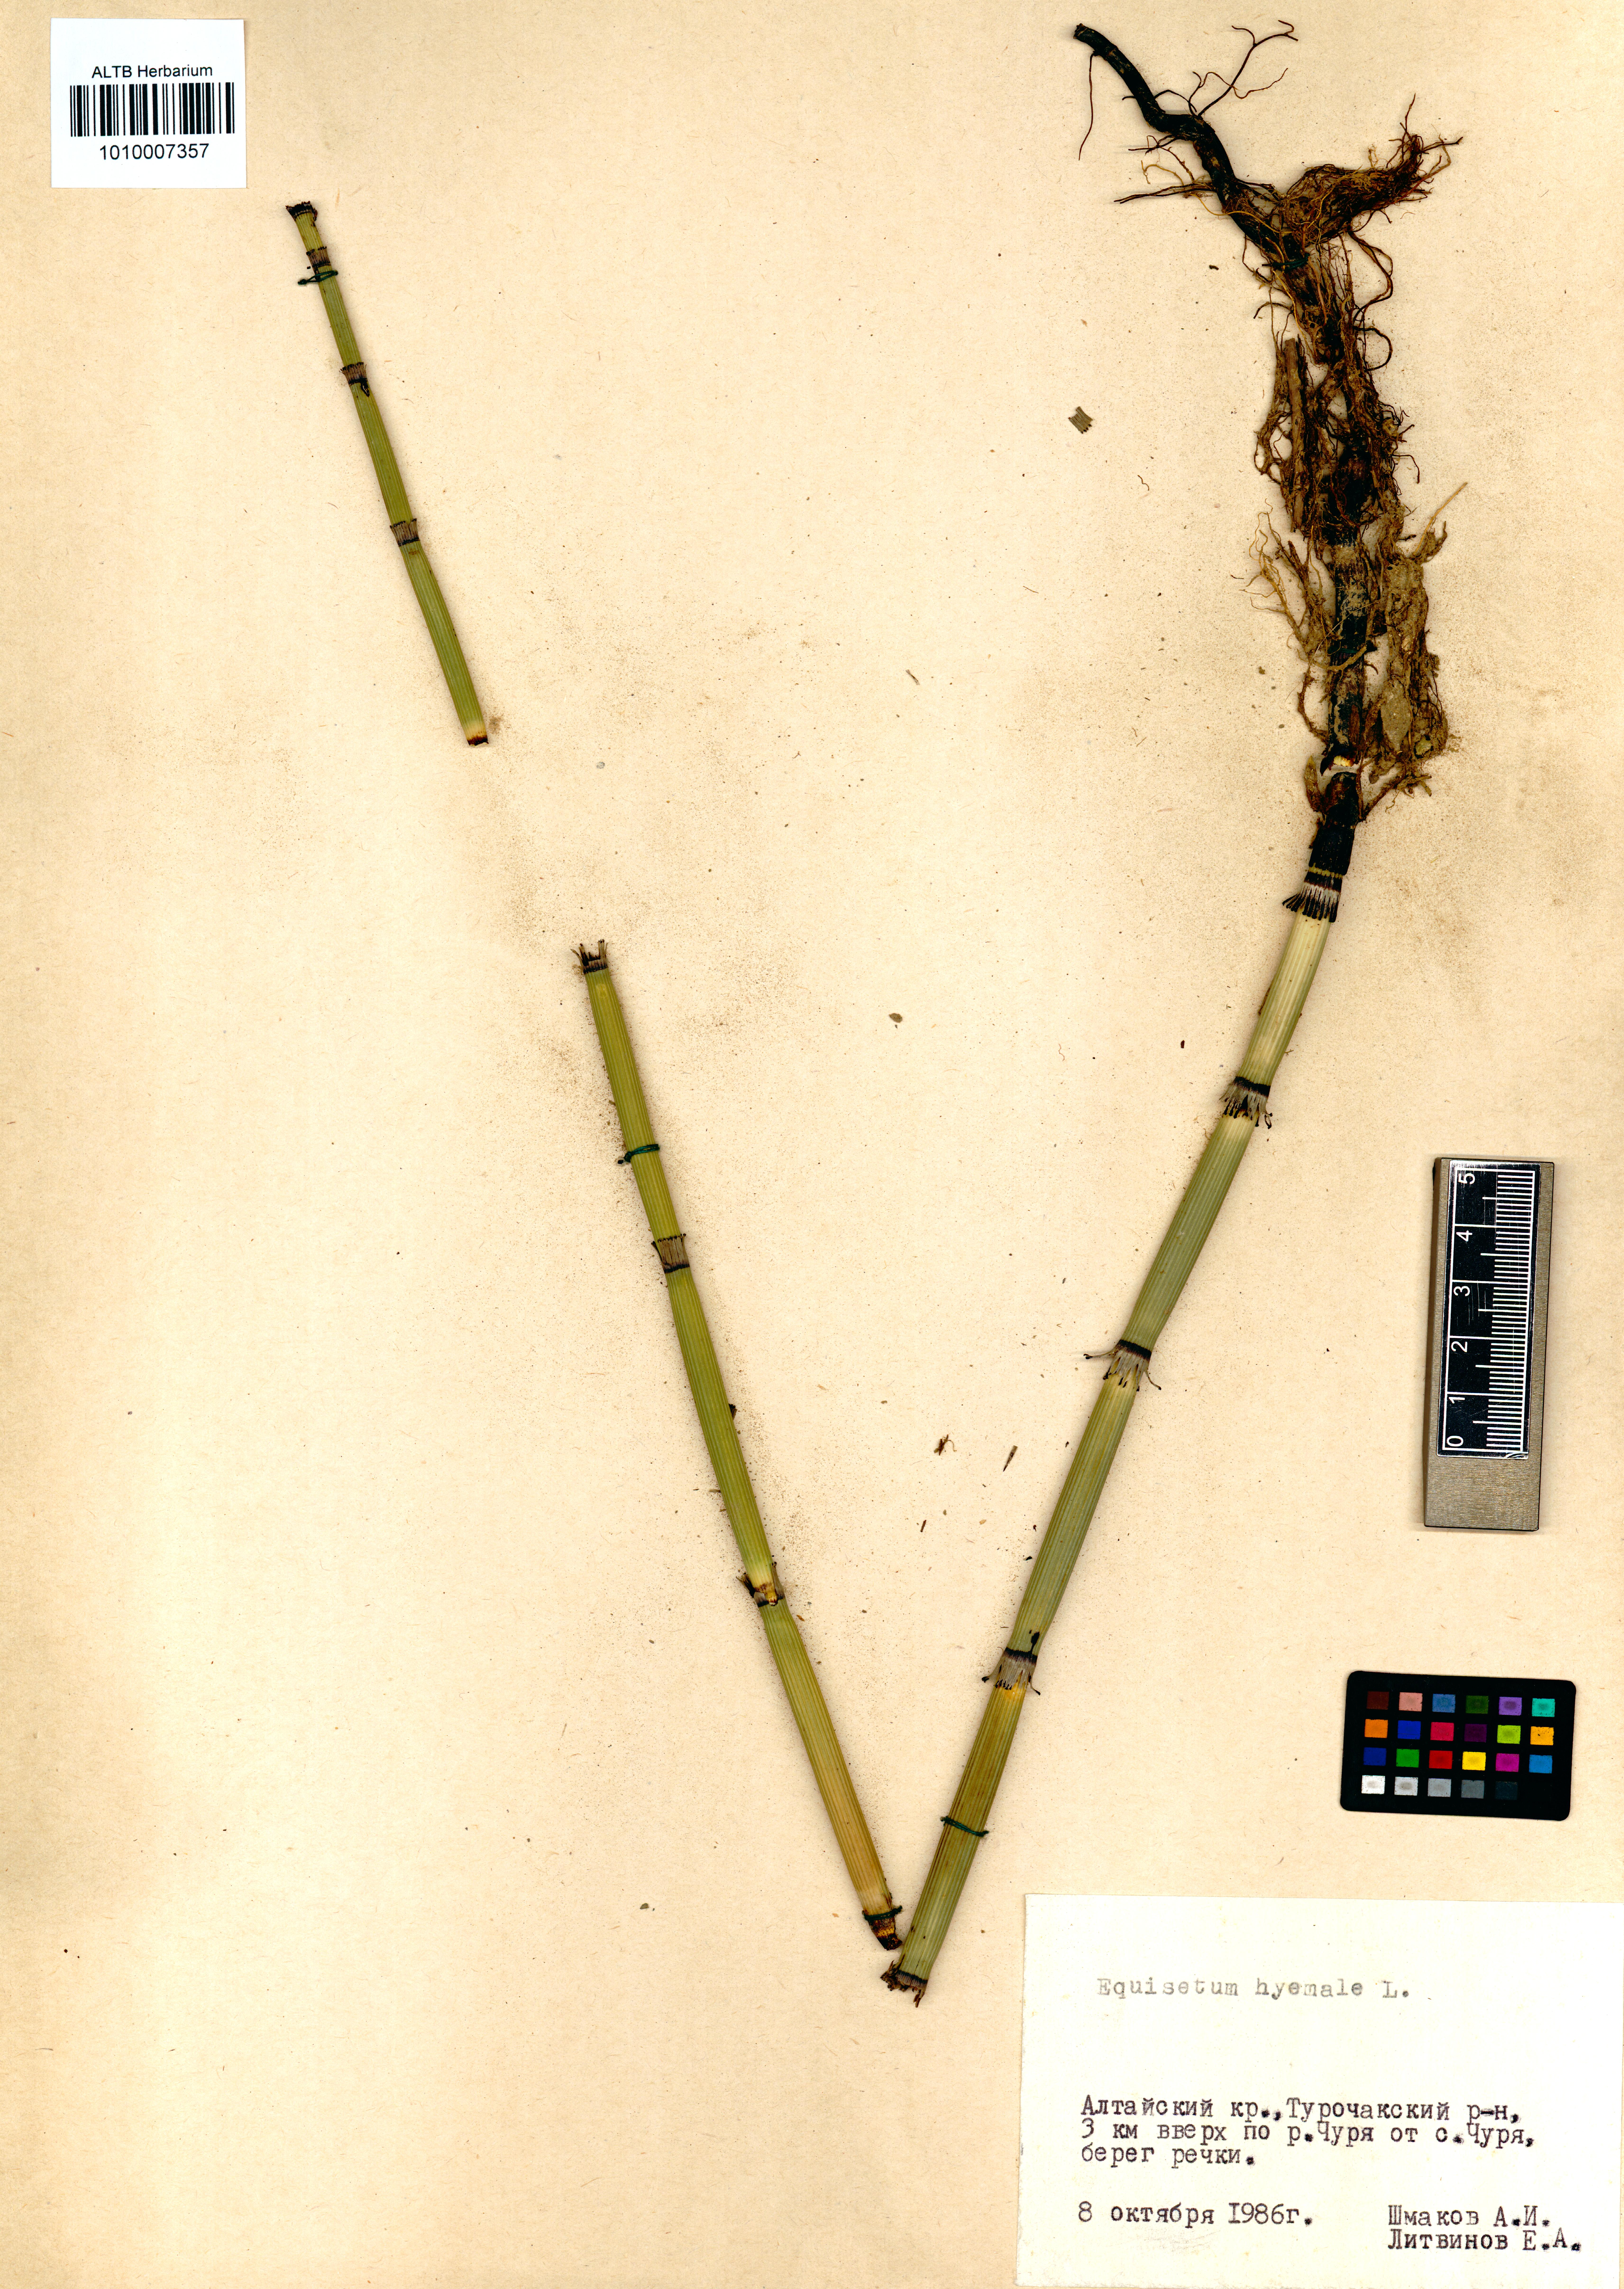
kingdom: Plantae
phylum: Tracheophyta
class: Polypodiopsida
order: Equisetales
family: Equisetaceae
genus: Equisetum
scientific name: Equisetum hyemale
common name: Rough horsetail
